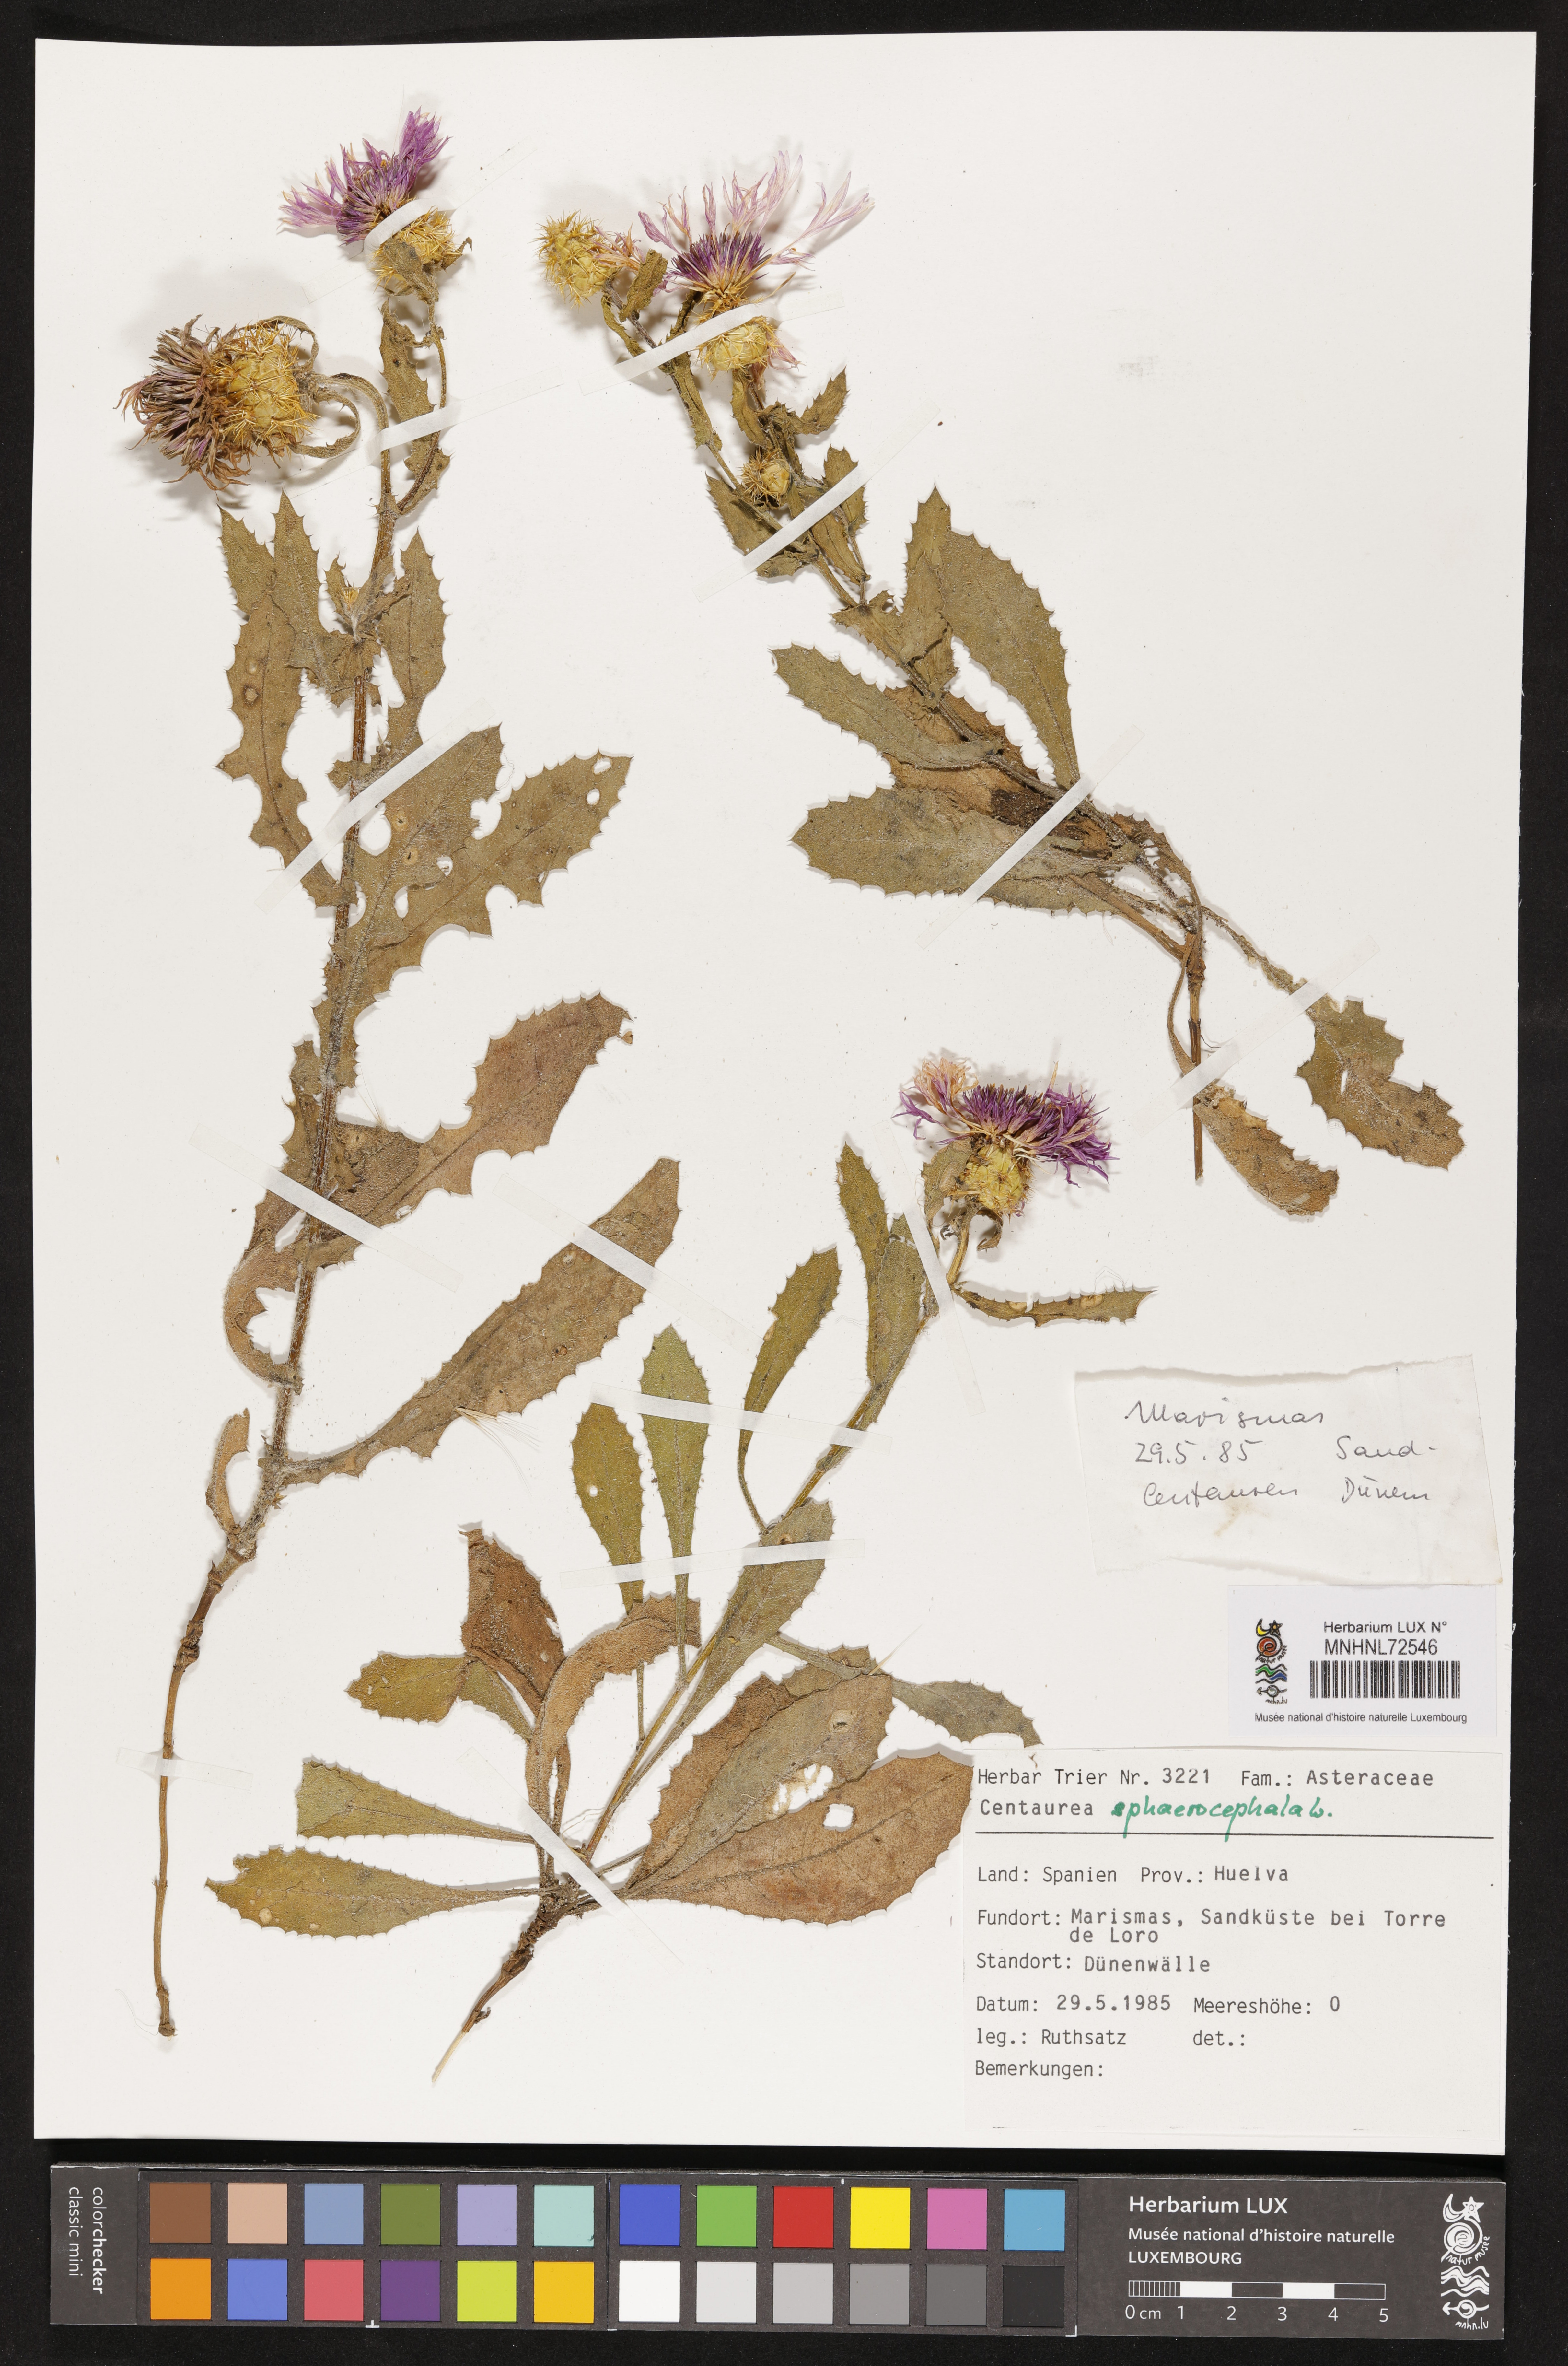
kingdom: Plantae
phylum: Tracheophyta
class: Magnoliopsida
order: Asterales
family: Asteraceae
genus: Centaurea
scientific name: Centaurea phaeocephala
